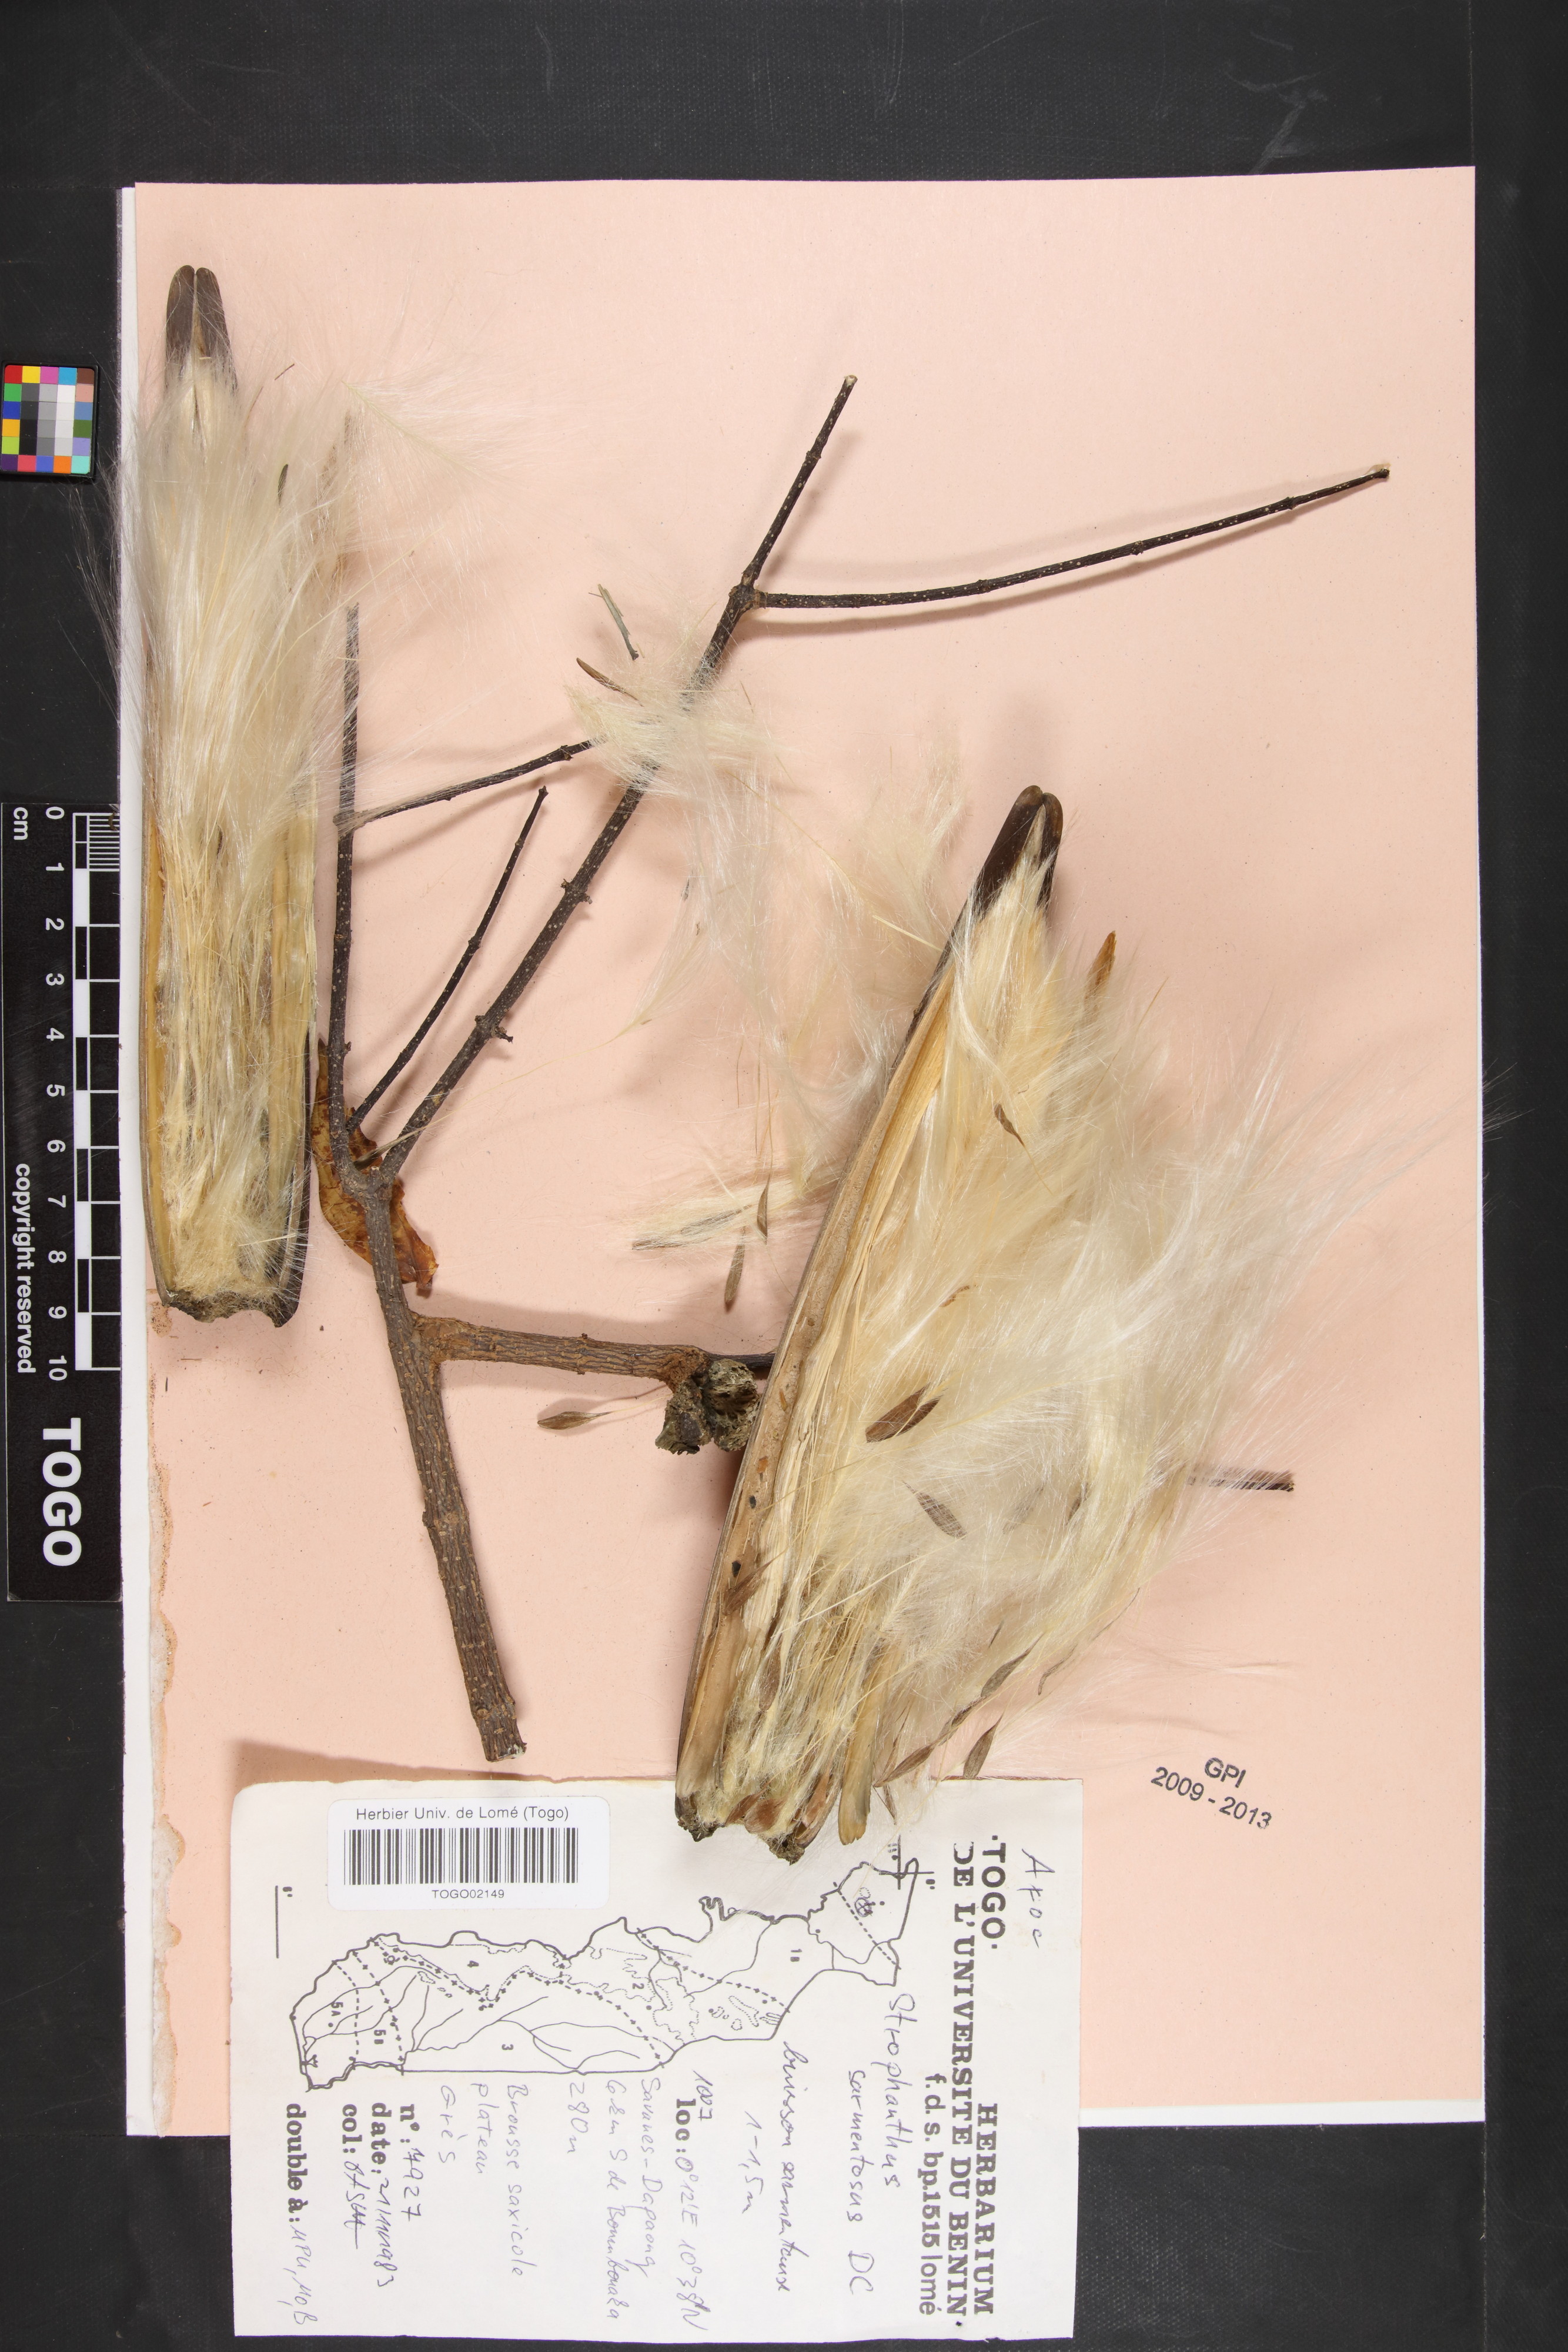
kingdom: Plantae
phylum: Tracheophyta
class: Magnoliopsida
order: Gentianales
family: Apocynaceae
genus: Strophanthus
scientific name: Strophanthus sarmentosus
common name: Poison arrowvine
